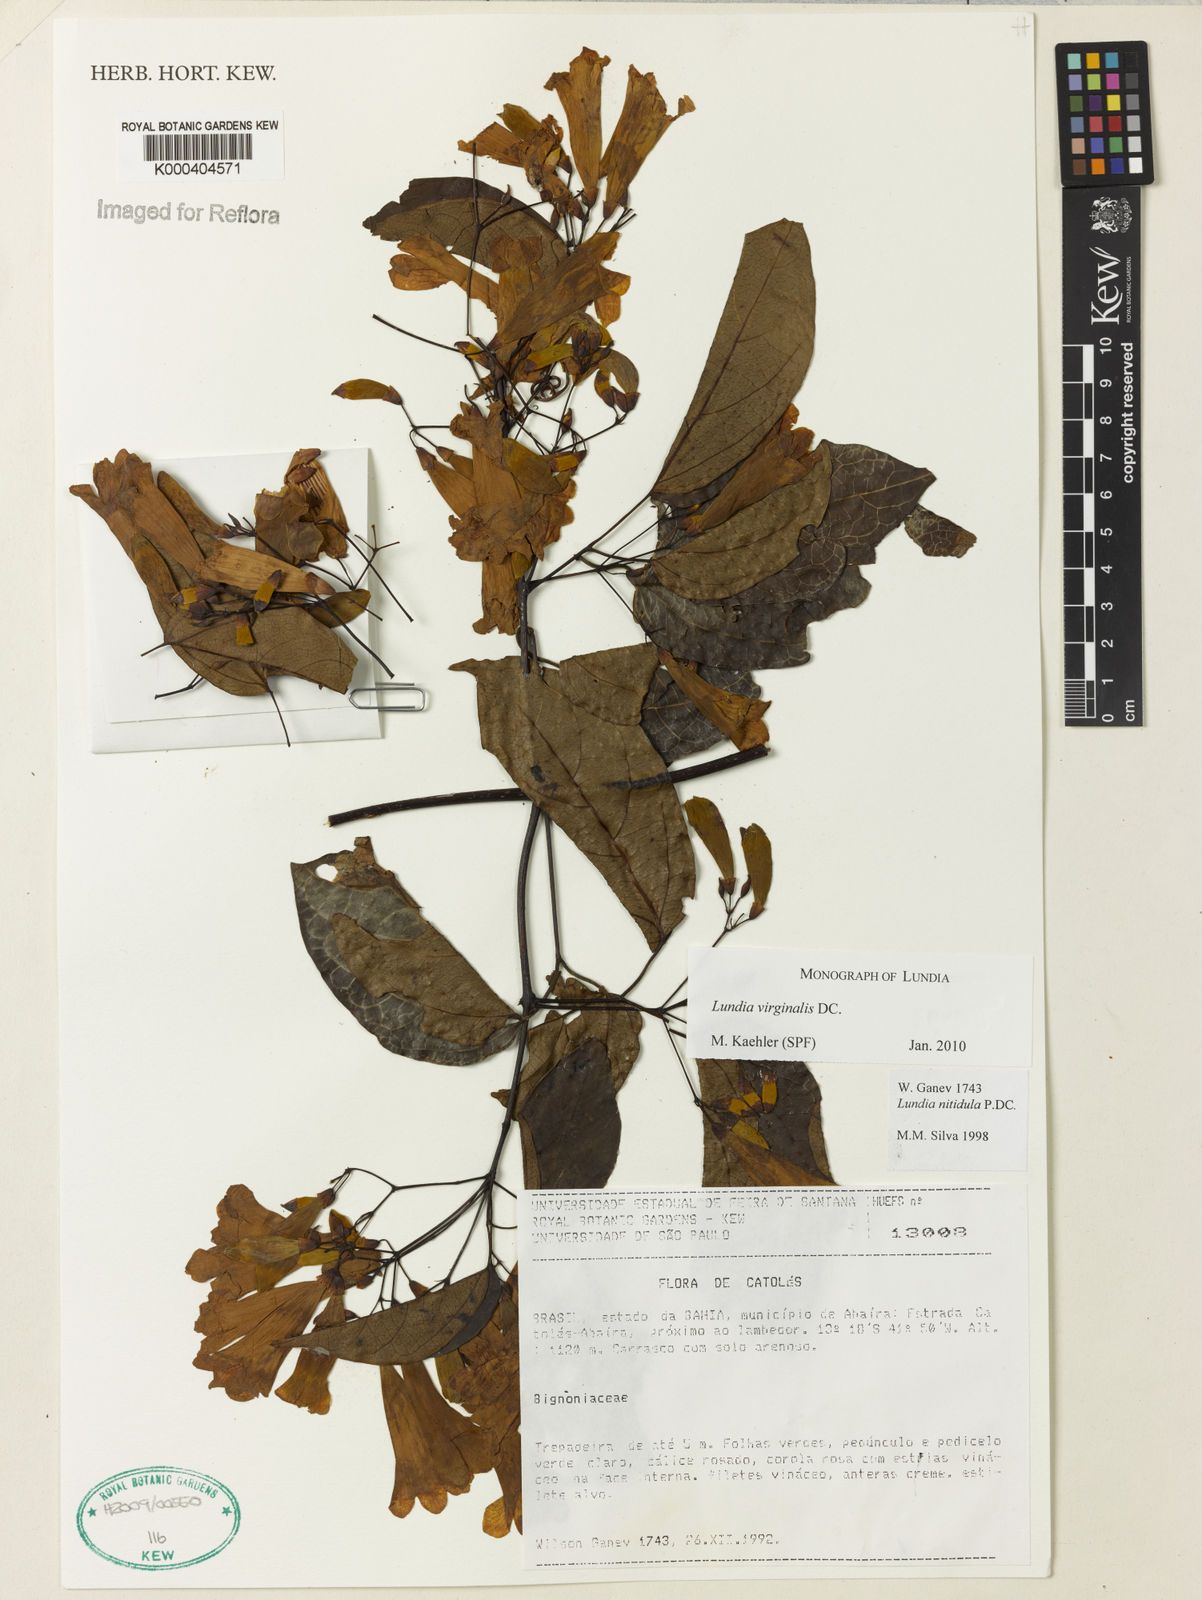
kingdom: Plantae
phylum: Tracheophyta
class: Magnoliopsida
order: Lamiales
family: Bignoniaceae
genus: Lundia
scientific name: Lundia virginalis
